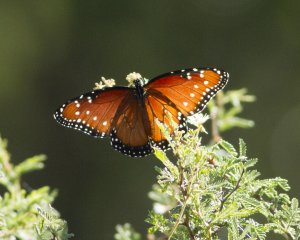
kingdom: Animalia
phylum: Arthropoda
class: Insecta
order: Lepidoptera
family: Nymphalidae
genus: Danaus
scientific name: Danaus gilippus
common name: Queen
